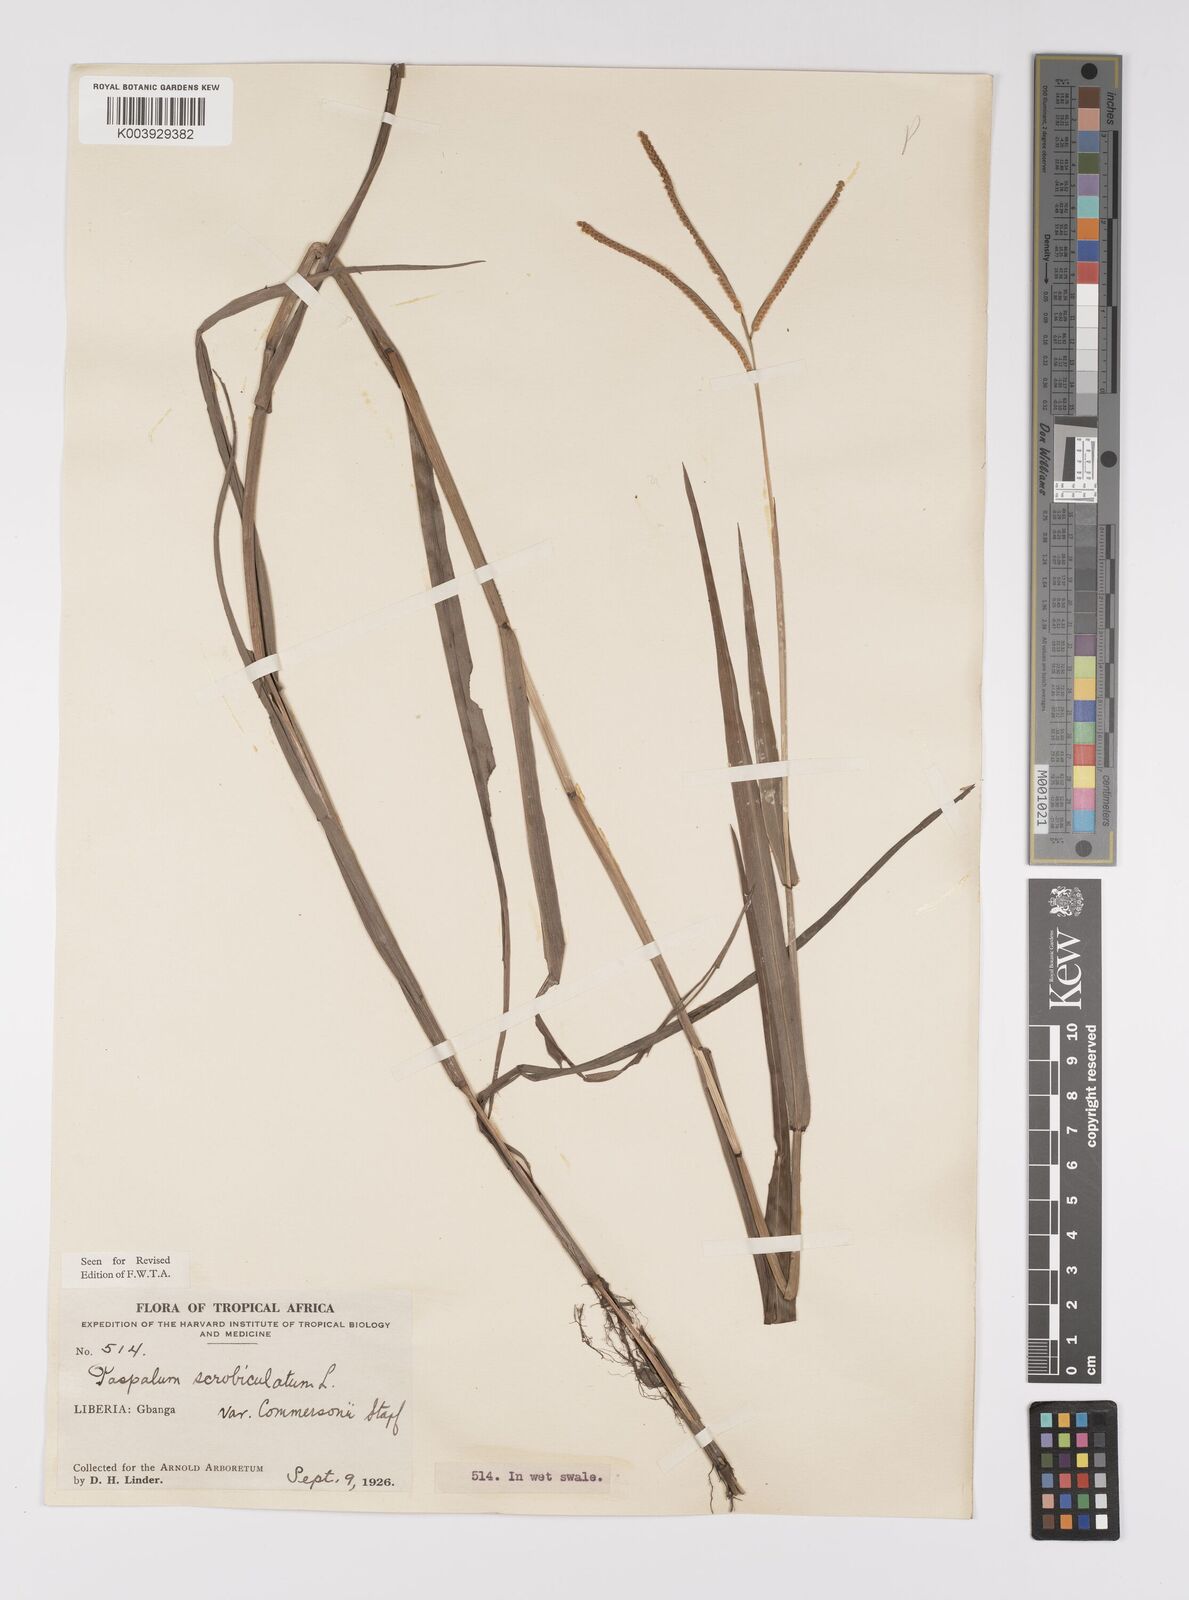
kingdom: Plantae
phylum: Tracheophyta
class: Liliopsida
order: Poales
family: Poaceae
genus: Paspalum
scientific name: Paspalum scrobiculatum
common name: Kodo millet
